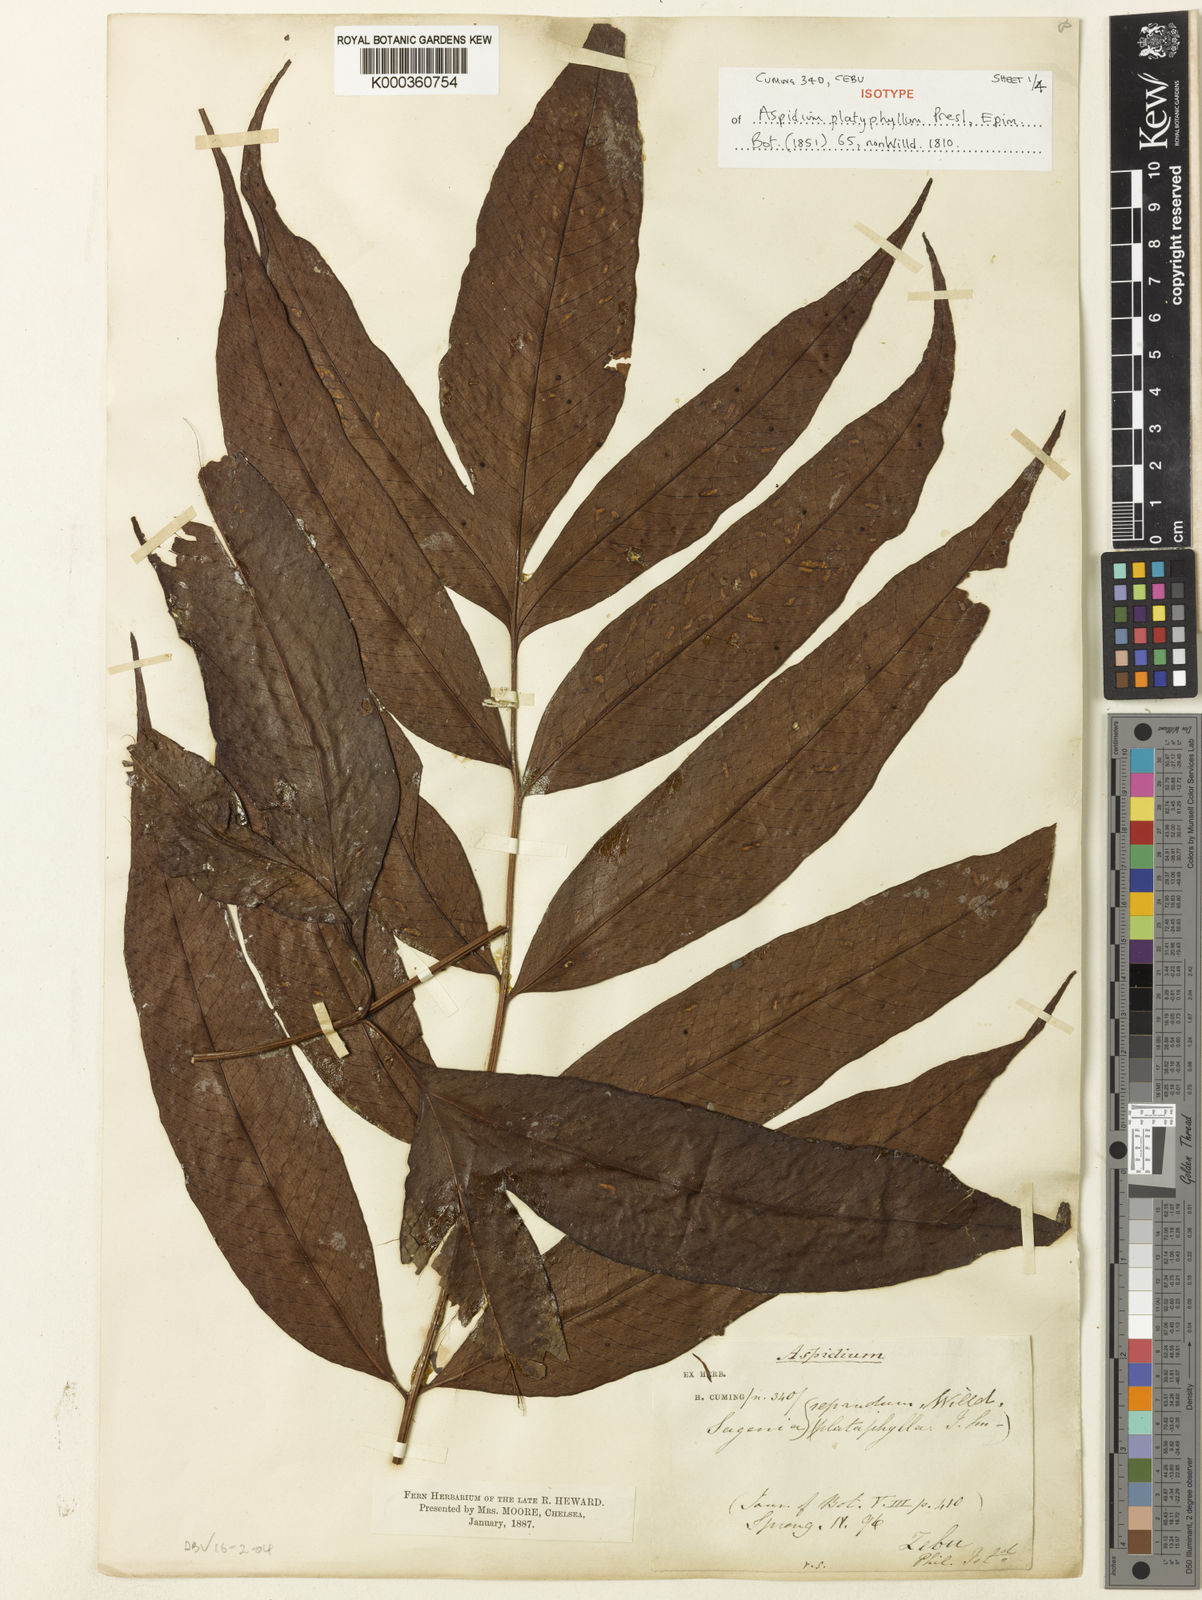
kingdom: Plantae
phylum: Tracheophyta
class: Polypodiopsida
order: Polypodiales
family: Tectariaceae
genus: Tectaria
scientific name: Tectaria repanda
